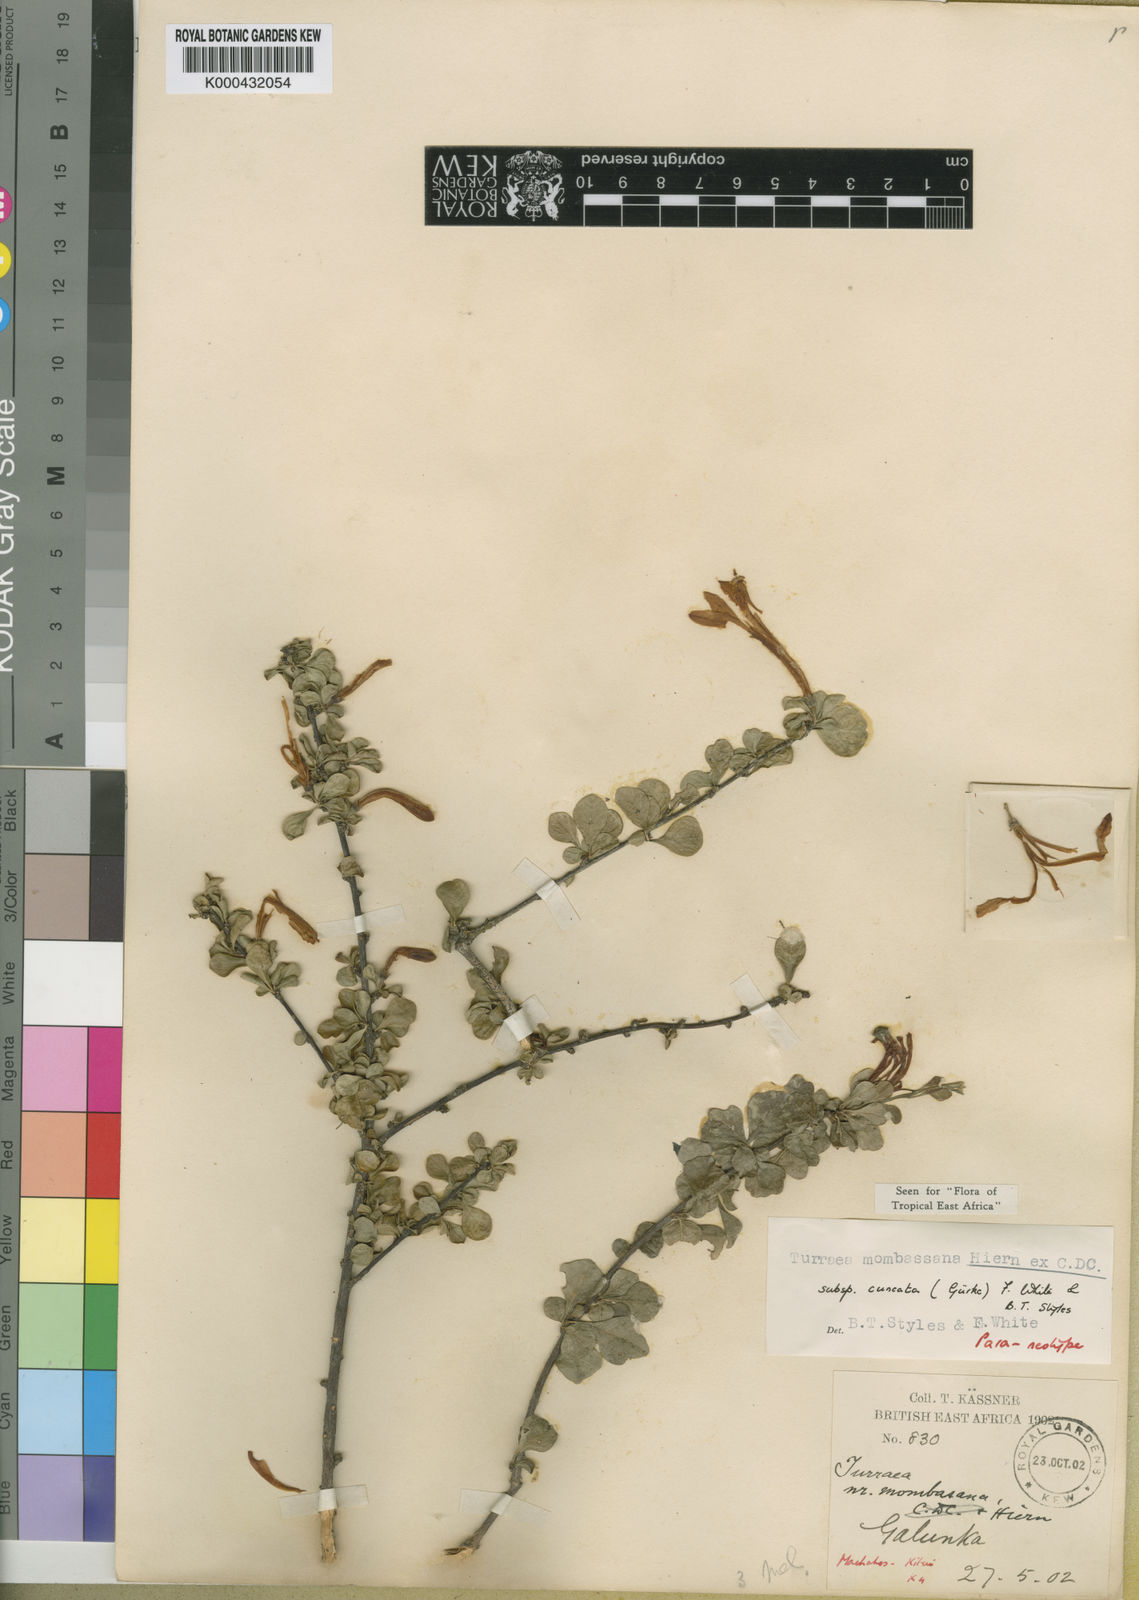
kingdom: Plantae
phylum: Tracheophyta
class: Magnoliopsida
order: Sapindales
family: Meliaceae
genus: Turraea
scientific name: Turraea mombassana
